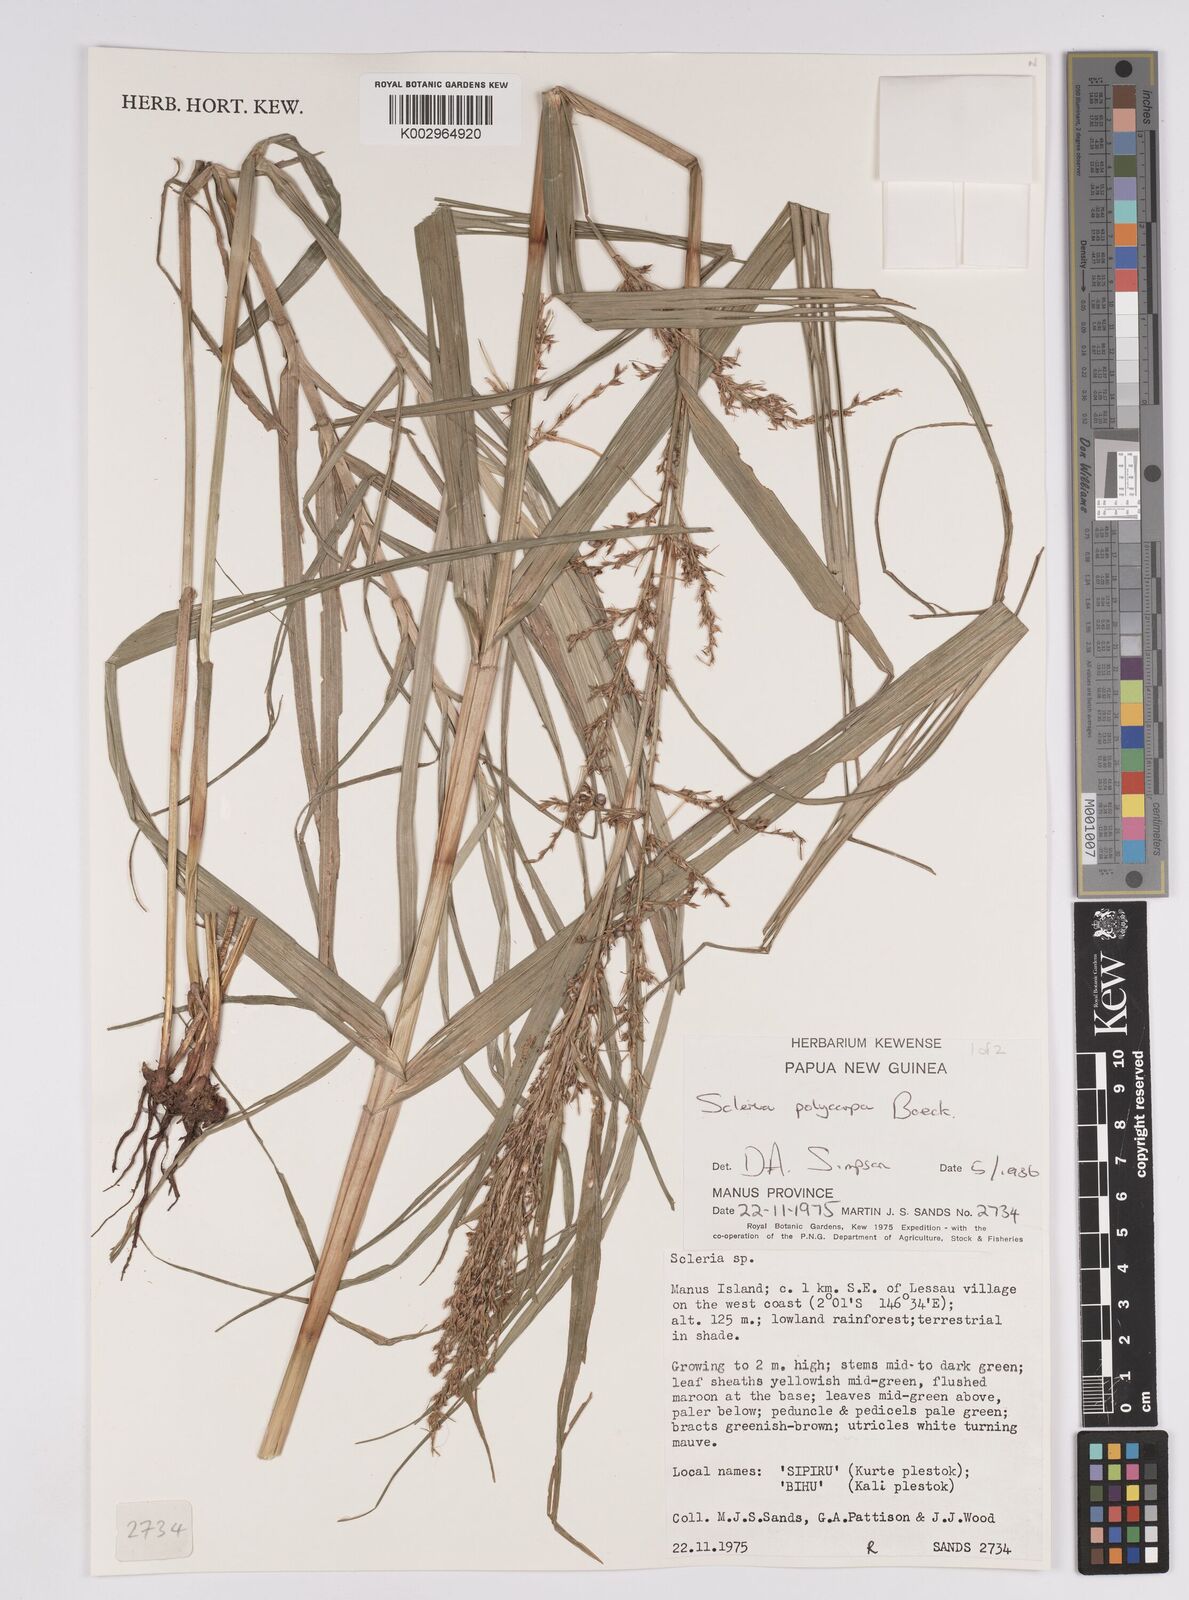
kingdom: Plantae
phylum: Tracheophyta
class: Liliopsida
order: Poales
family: Cyperaceae
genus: Scleria
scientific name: Scleria polycarpa
